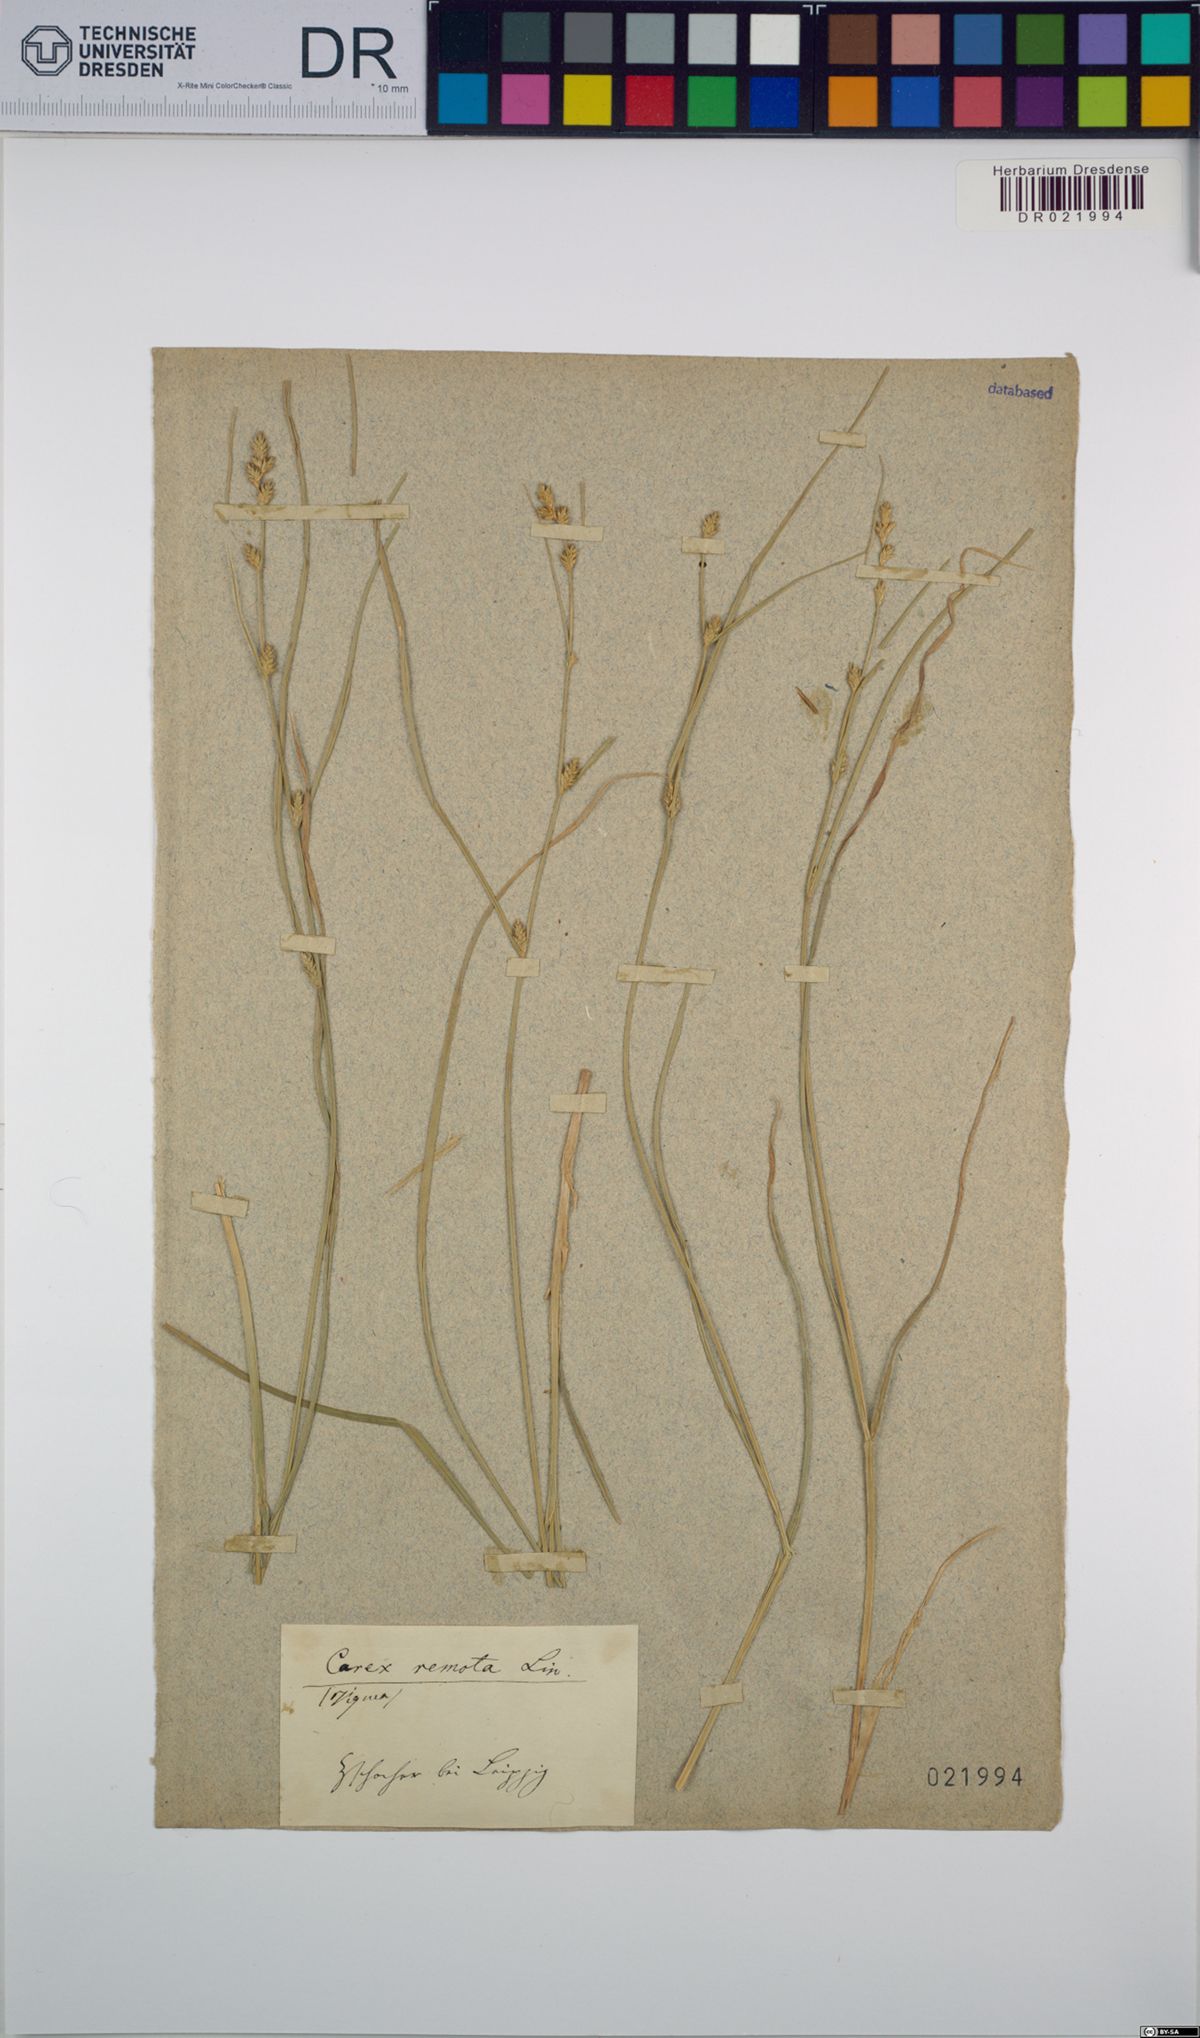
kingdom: Plantae
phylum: Tracheophyta
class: Liliopsida
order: Poales
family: Cyperaceae
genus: Carex
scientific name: Carex remota
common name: Remote sedge
